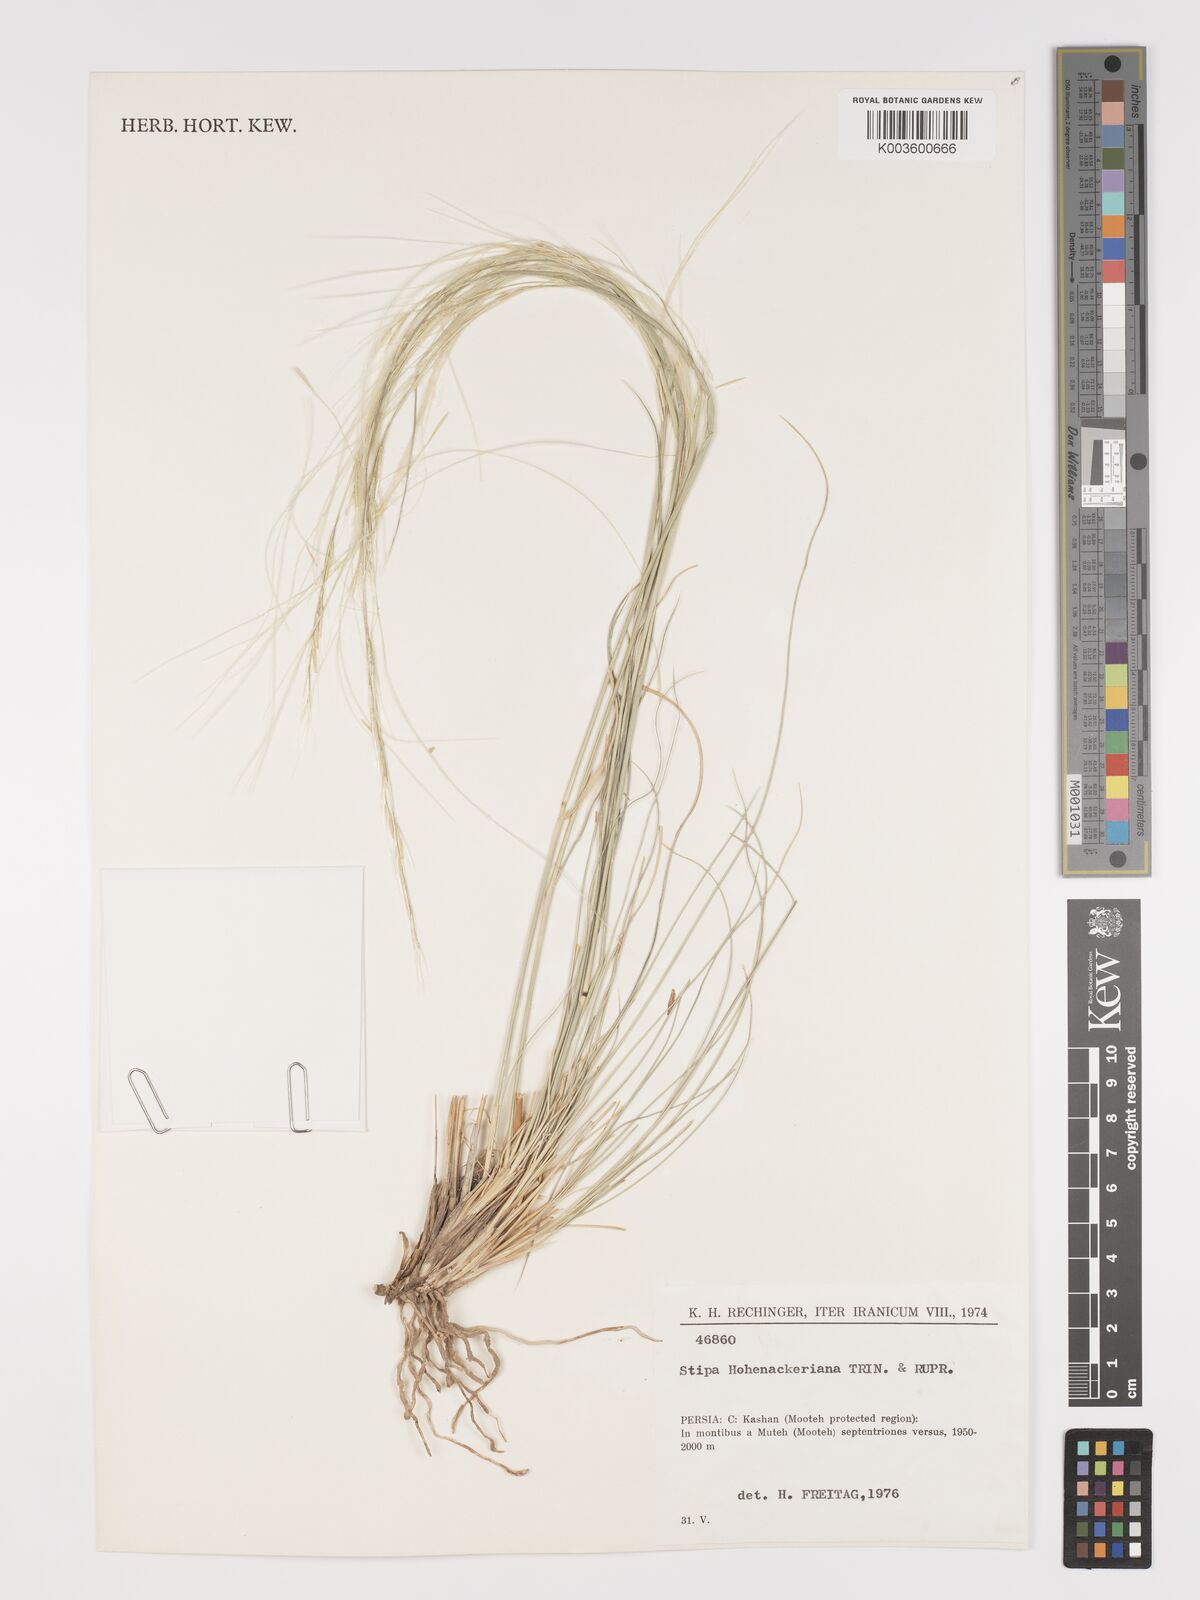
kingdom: Plantae
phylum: Tracheophyta
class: Liliopsida
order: Poales
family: Poaceae
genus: Stipa
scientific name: Stipa hohenackeriana
